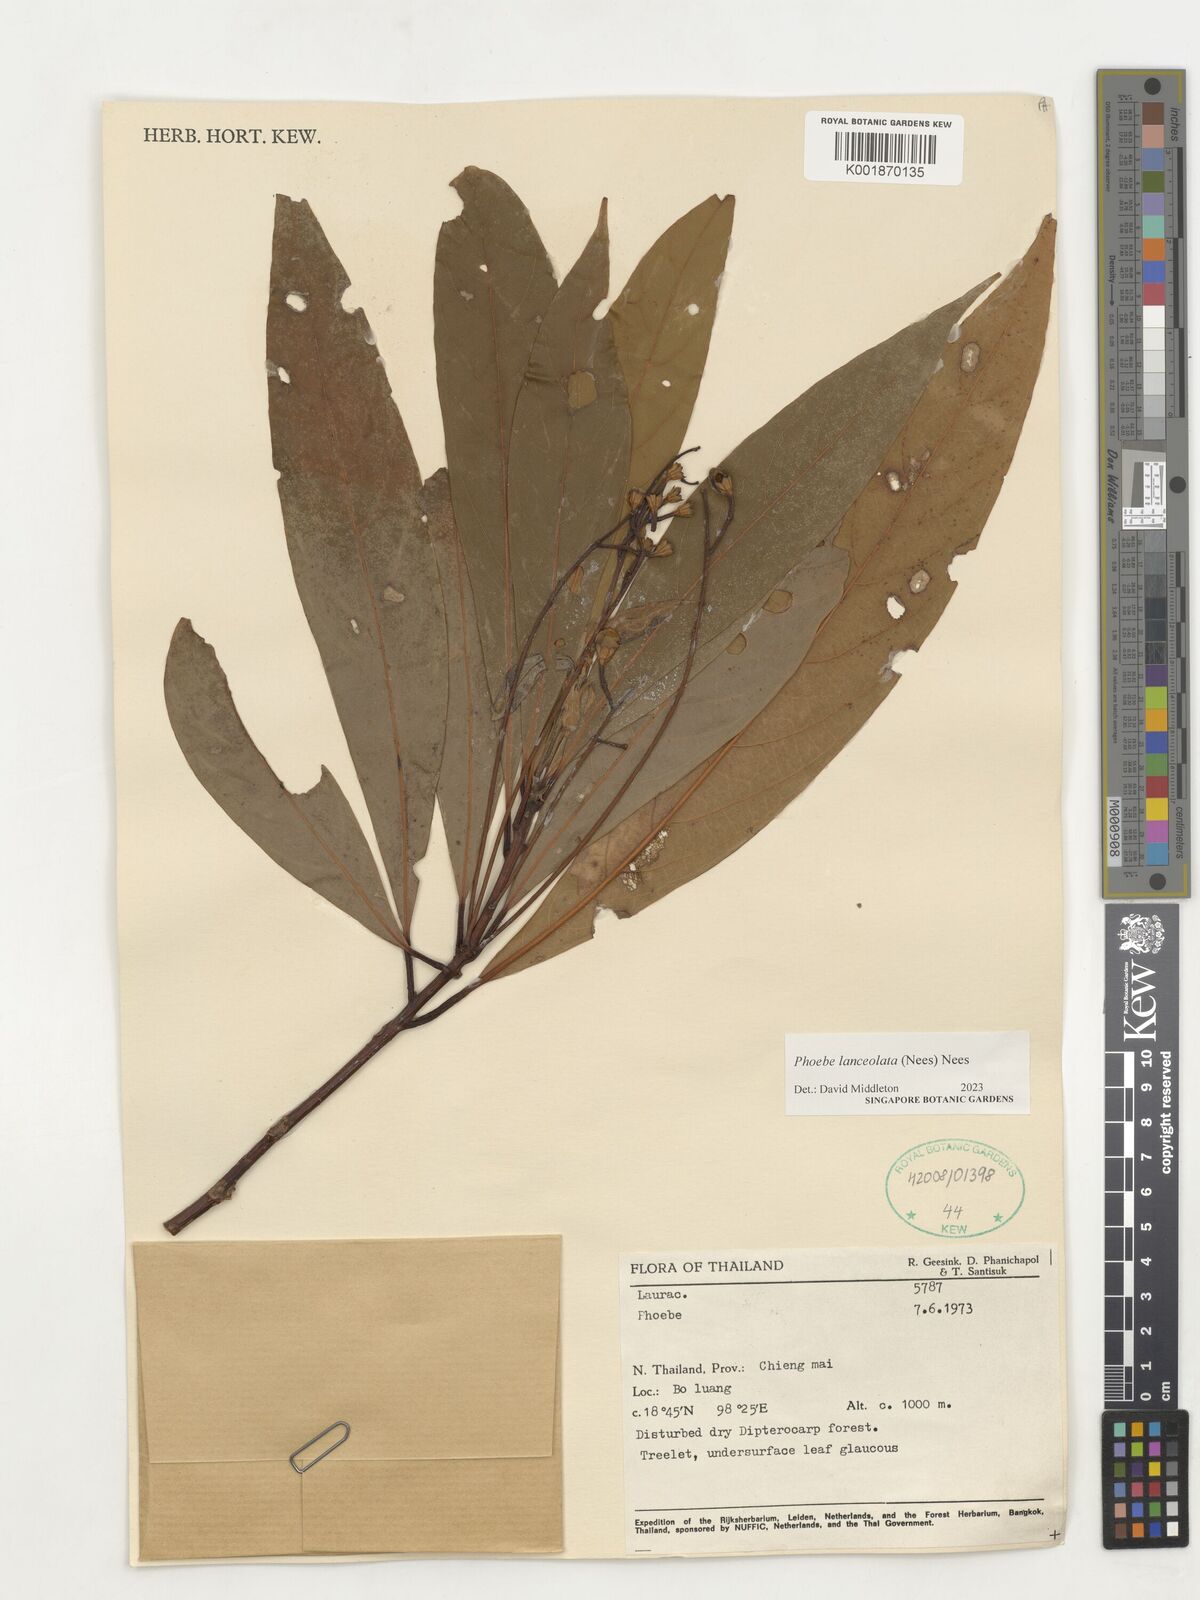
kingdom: Plantae
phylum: Tracheophyta
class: Magnoliopsida
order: Laurales
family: Lauraceae
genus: Phoebe
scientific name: Phoebe lanceolata
